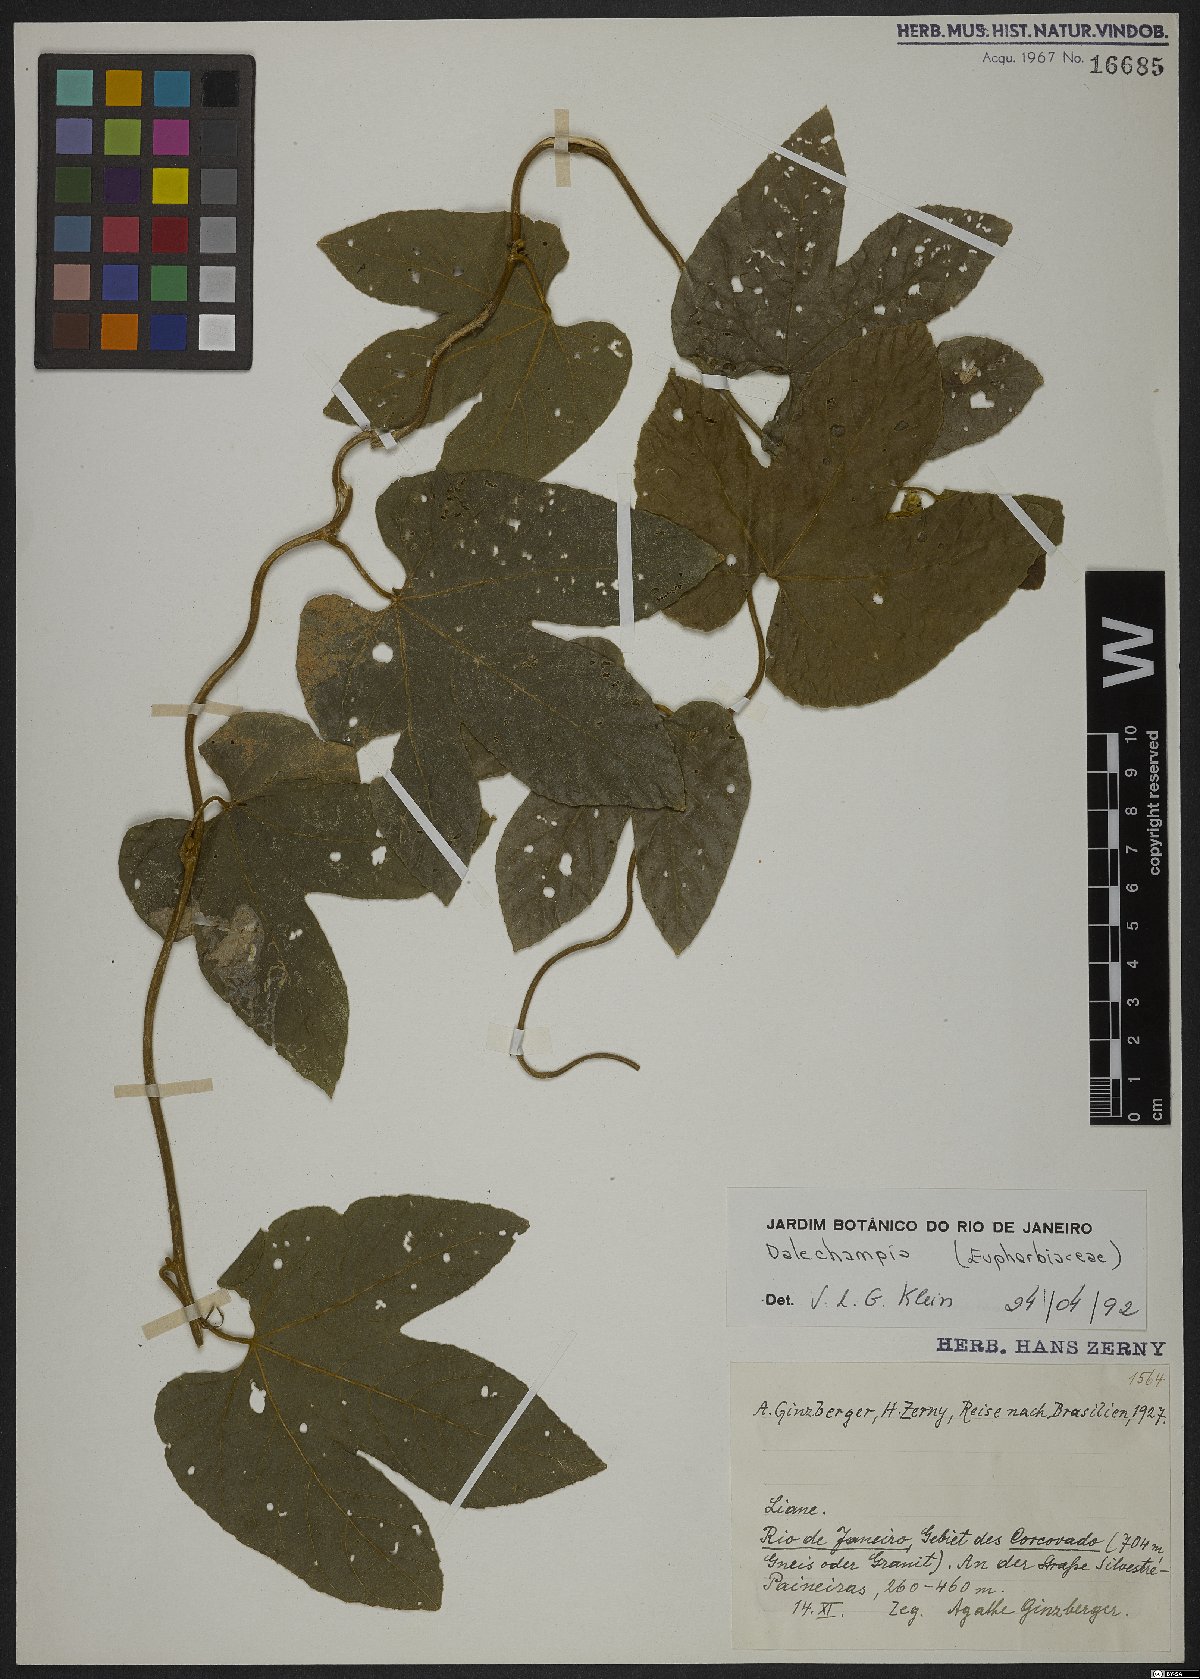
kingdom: Plantae
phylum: Tracheophyta
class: Magnoliopsida
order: Malpighiales
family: Euphorbiaceae
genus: Dalechampia
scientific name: Dalechampia
